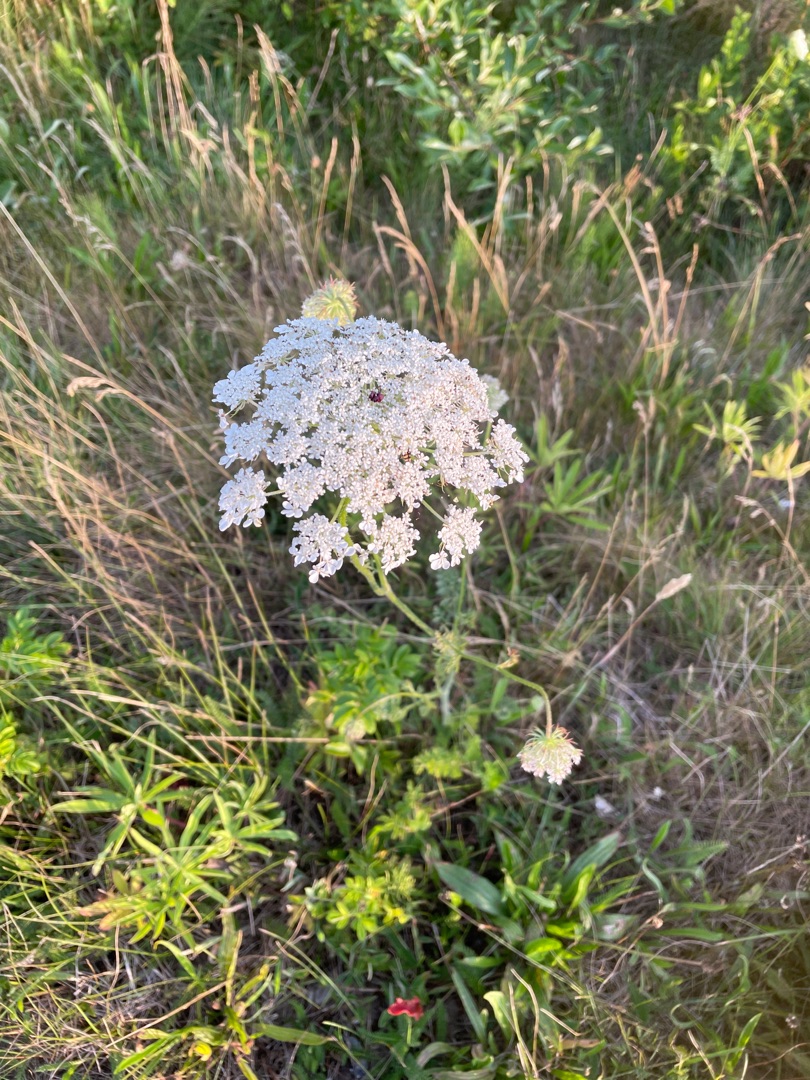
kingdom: Plantae
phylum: Tracheophyta
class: Magnoliopsida
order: Apiales
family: Apiaceae
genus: Daucus
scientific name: Daucus carota
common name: Gulerod
